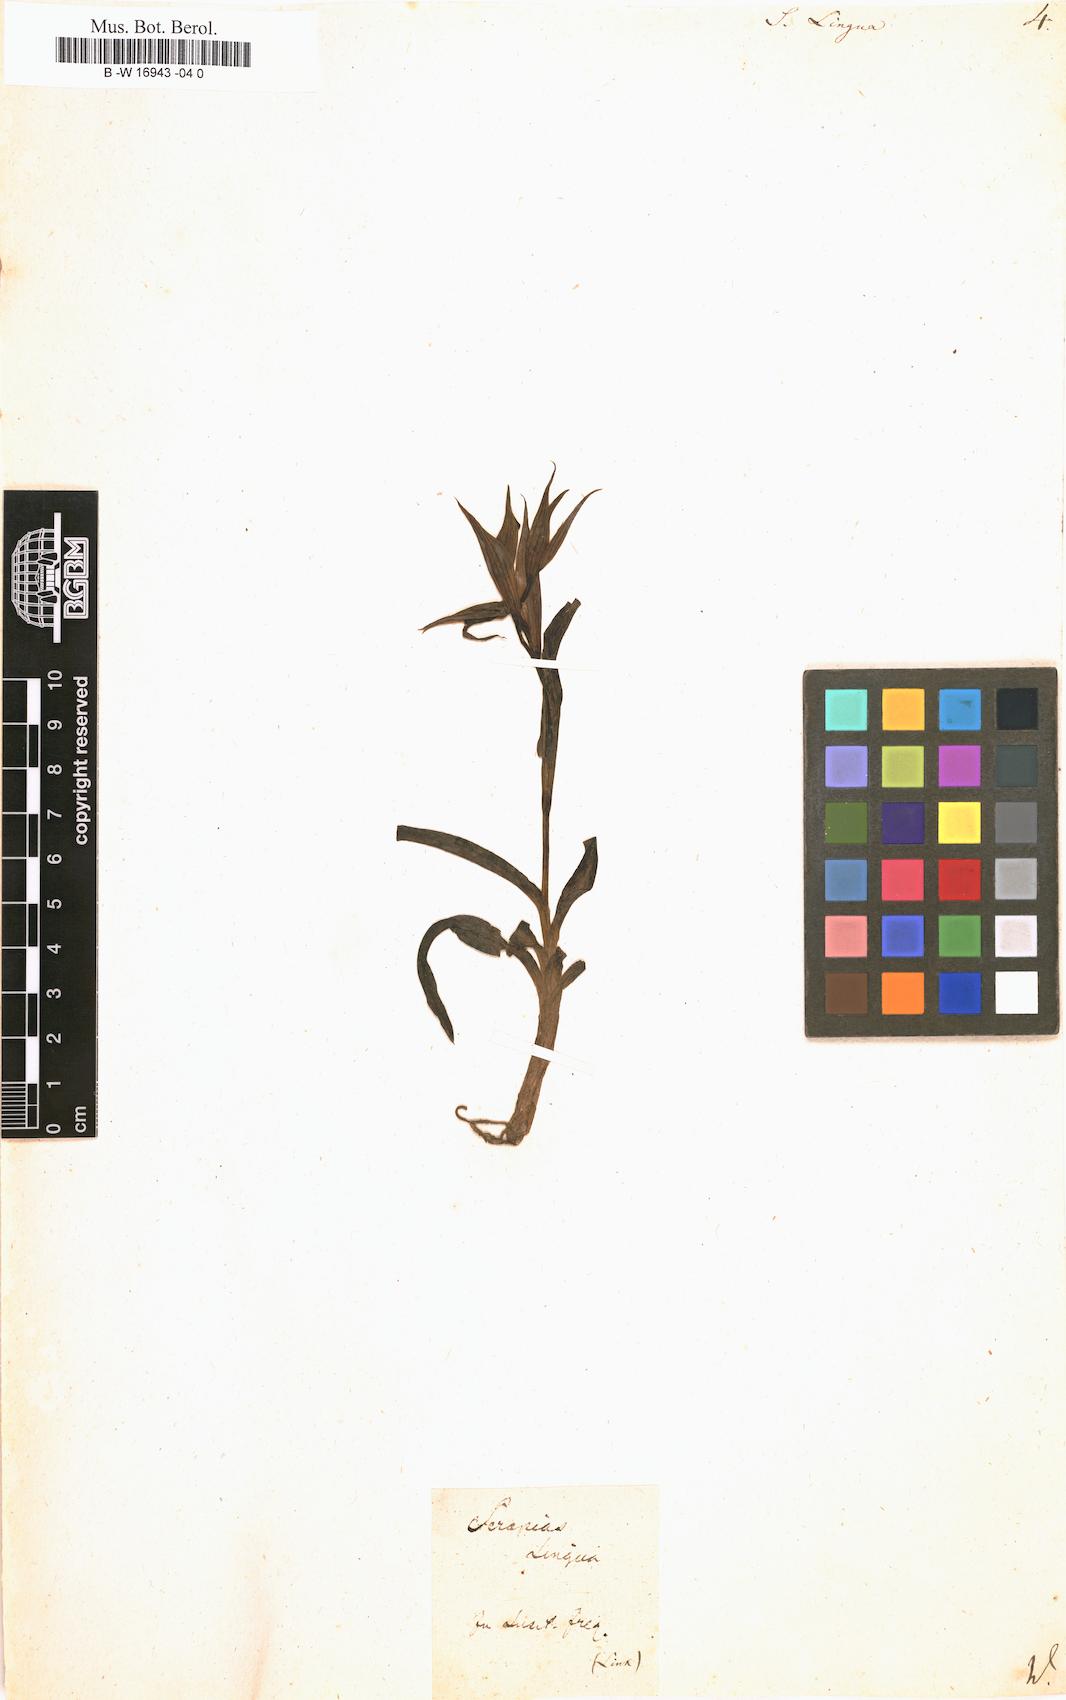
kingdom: Plantae
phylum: Tracheophyta
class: Liliopsida
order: Asparagales
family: Orchidaceae
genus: Ophrys
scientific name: Ophrys fusca
